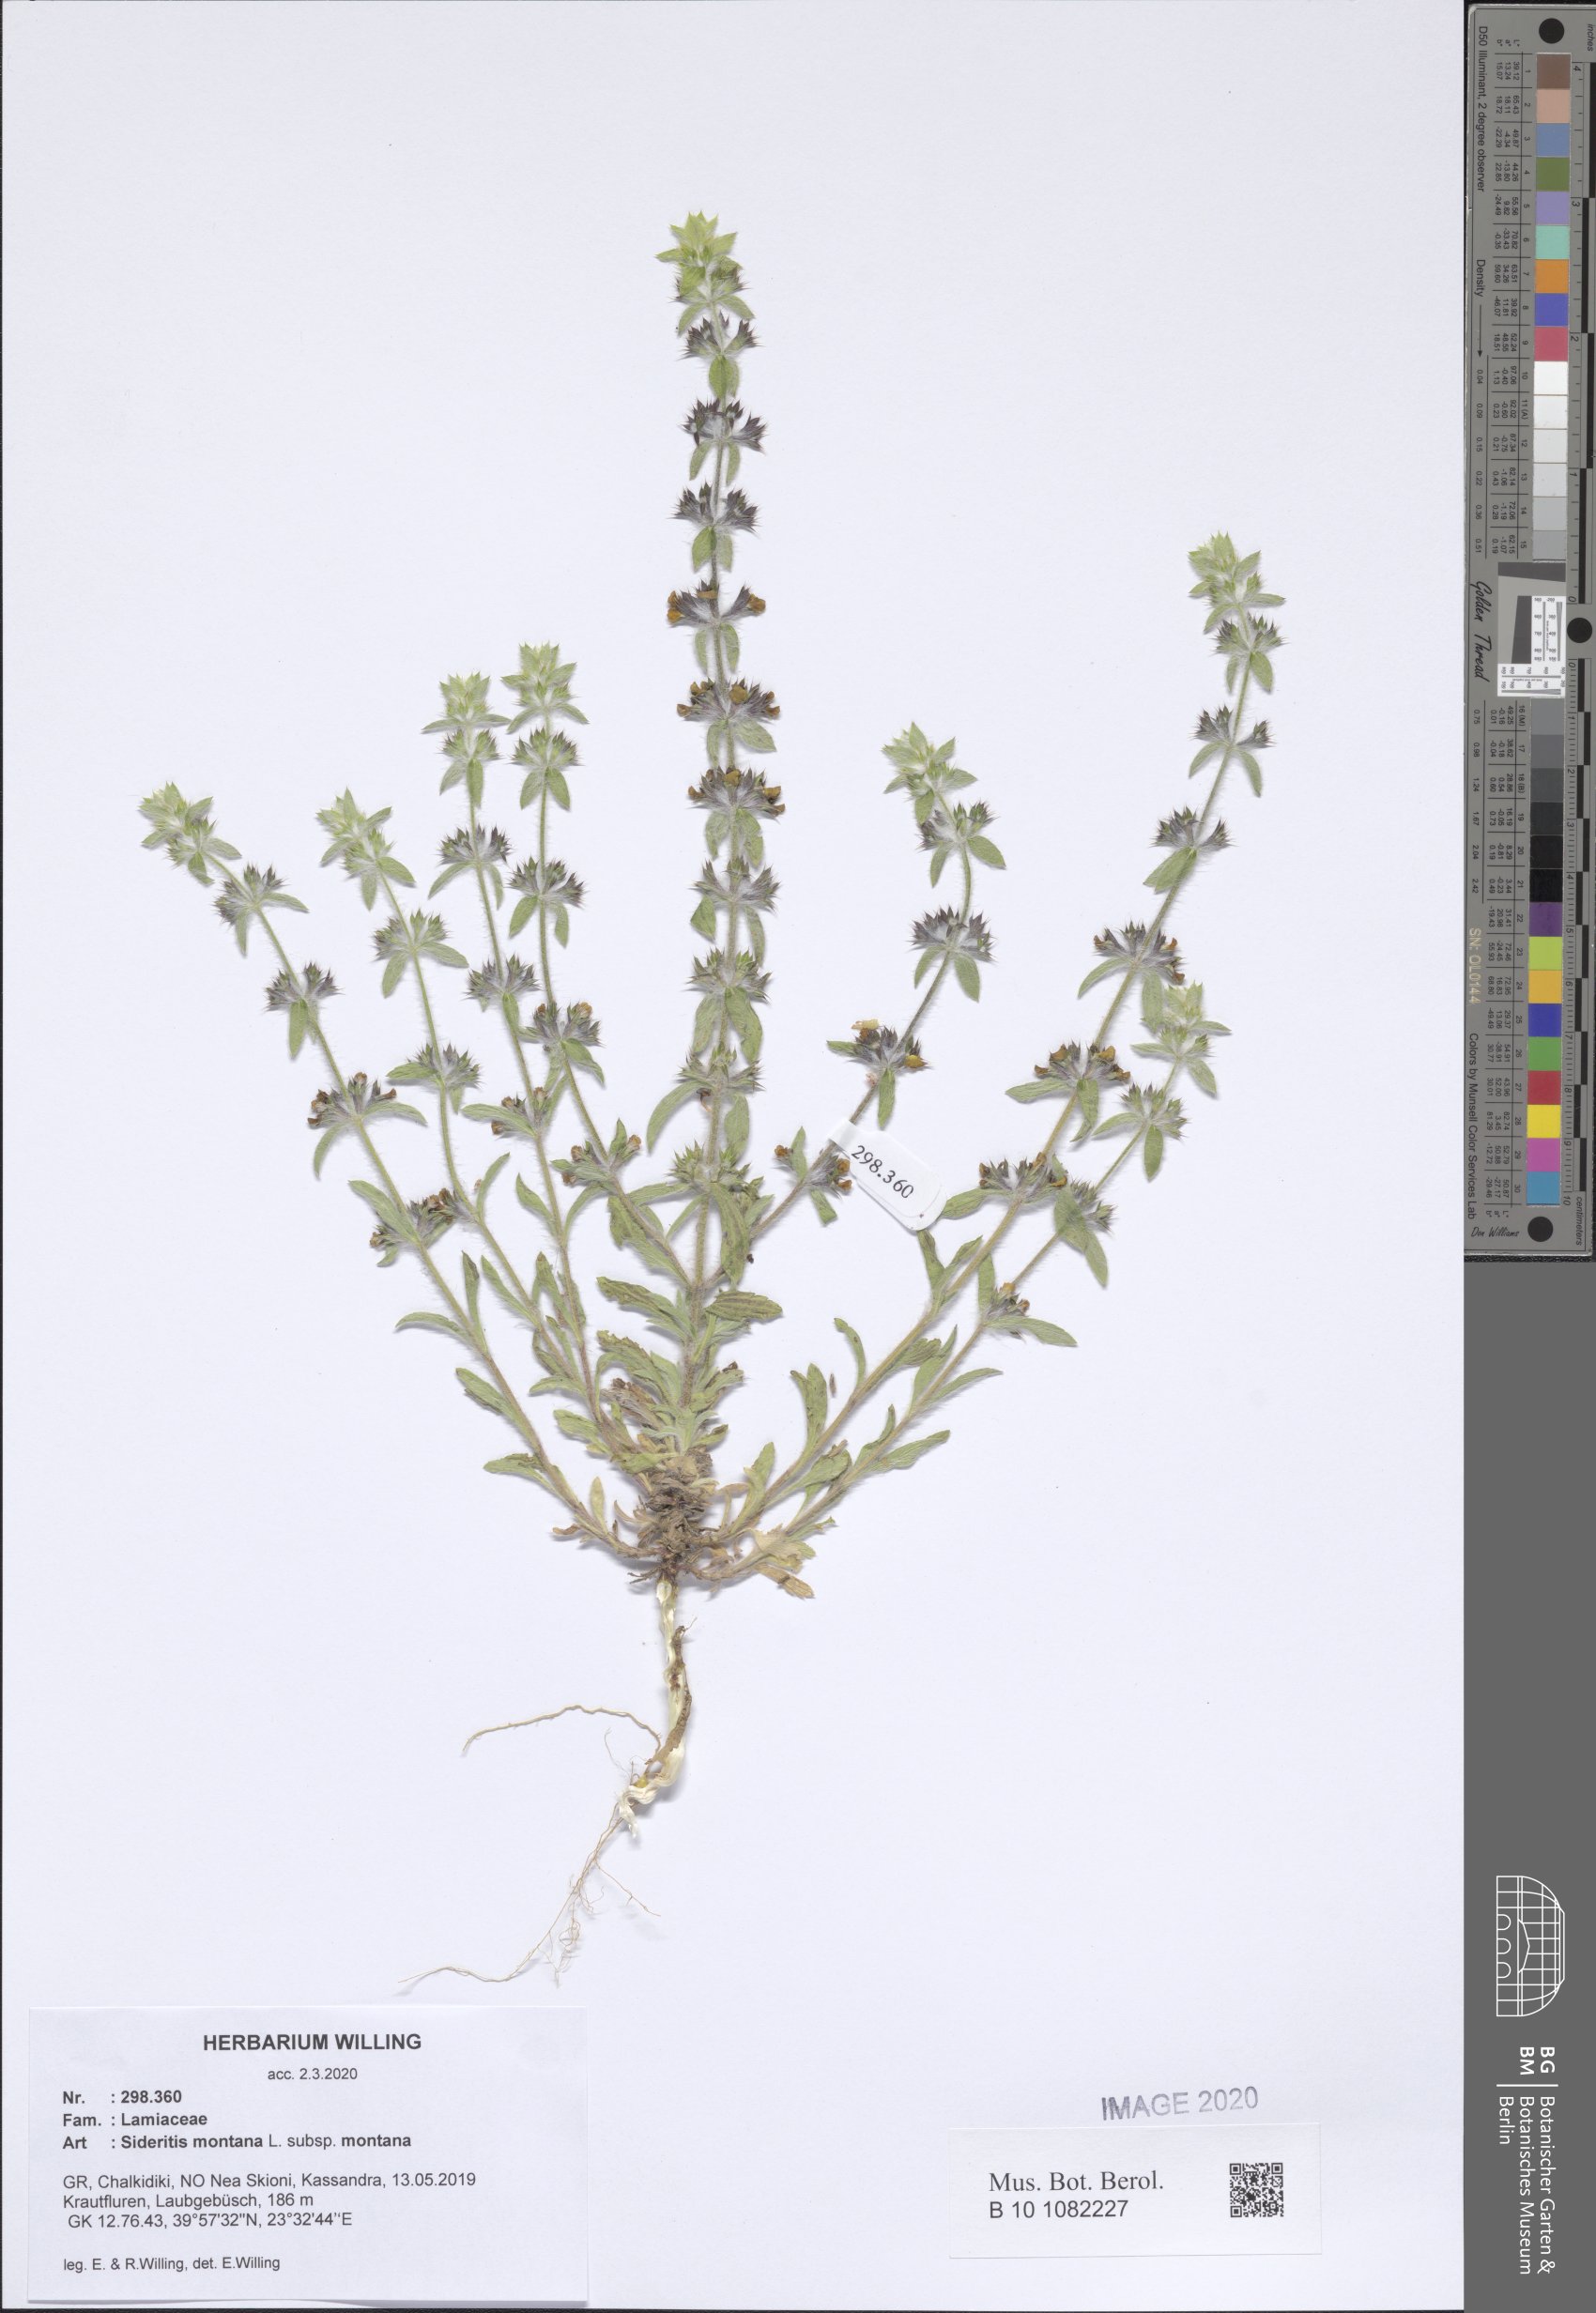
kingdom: Plantae
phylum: Tracheophyta
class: Magnoliopsida
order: Lamiales
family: Lamiaceae
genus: Sideritis
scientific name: Sideritis montana
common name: Mountain ironwort
